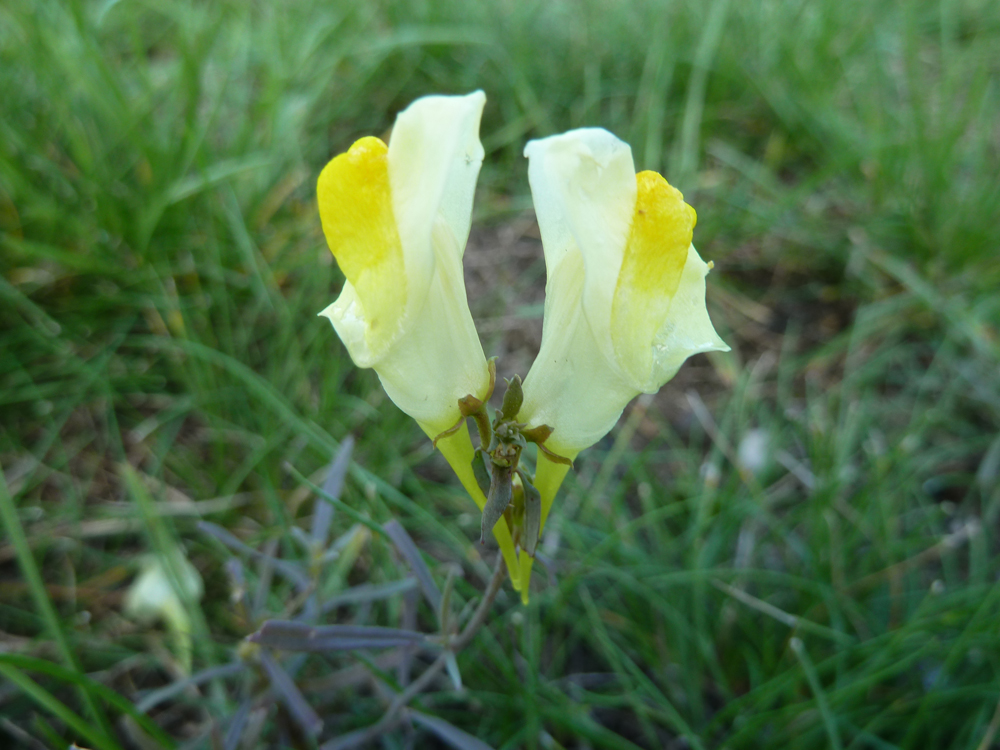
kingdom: Plantae
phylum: Tracheophyta
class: Magnoliopsida
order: Lamiales
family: Plantaginaceae
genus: Linaria
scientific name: Linaria vulgaris
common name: Butter and eggs
